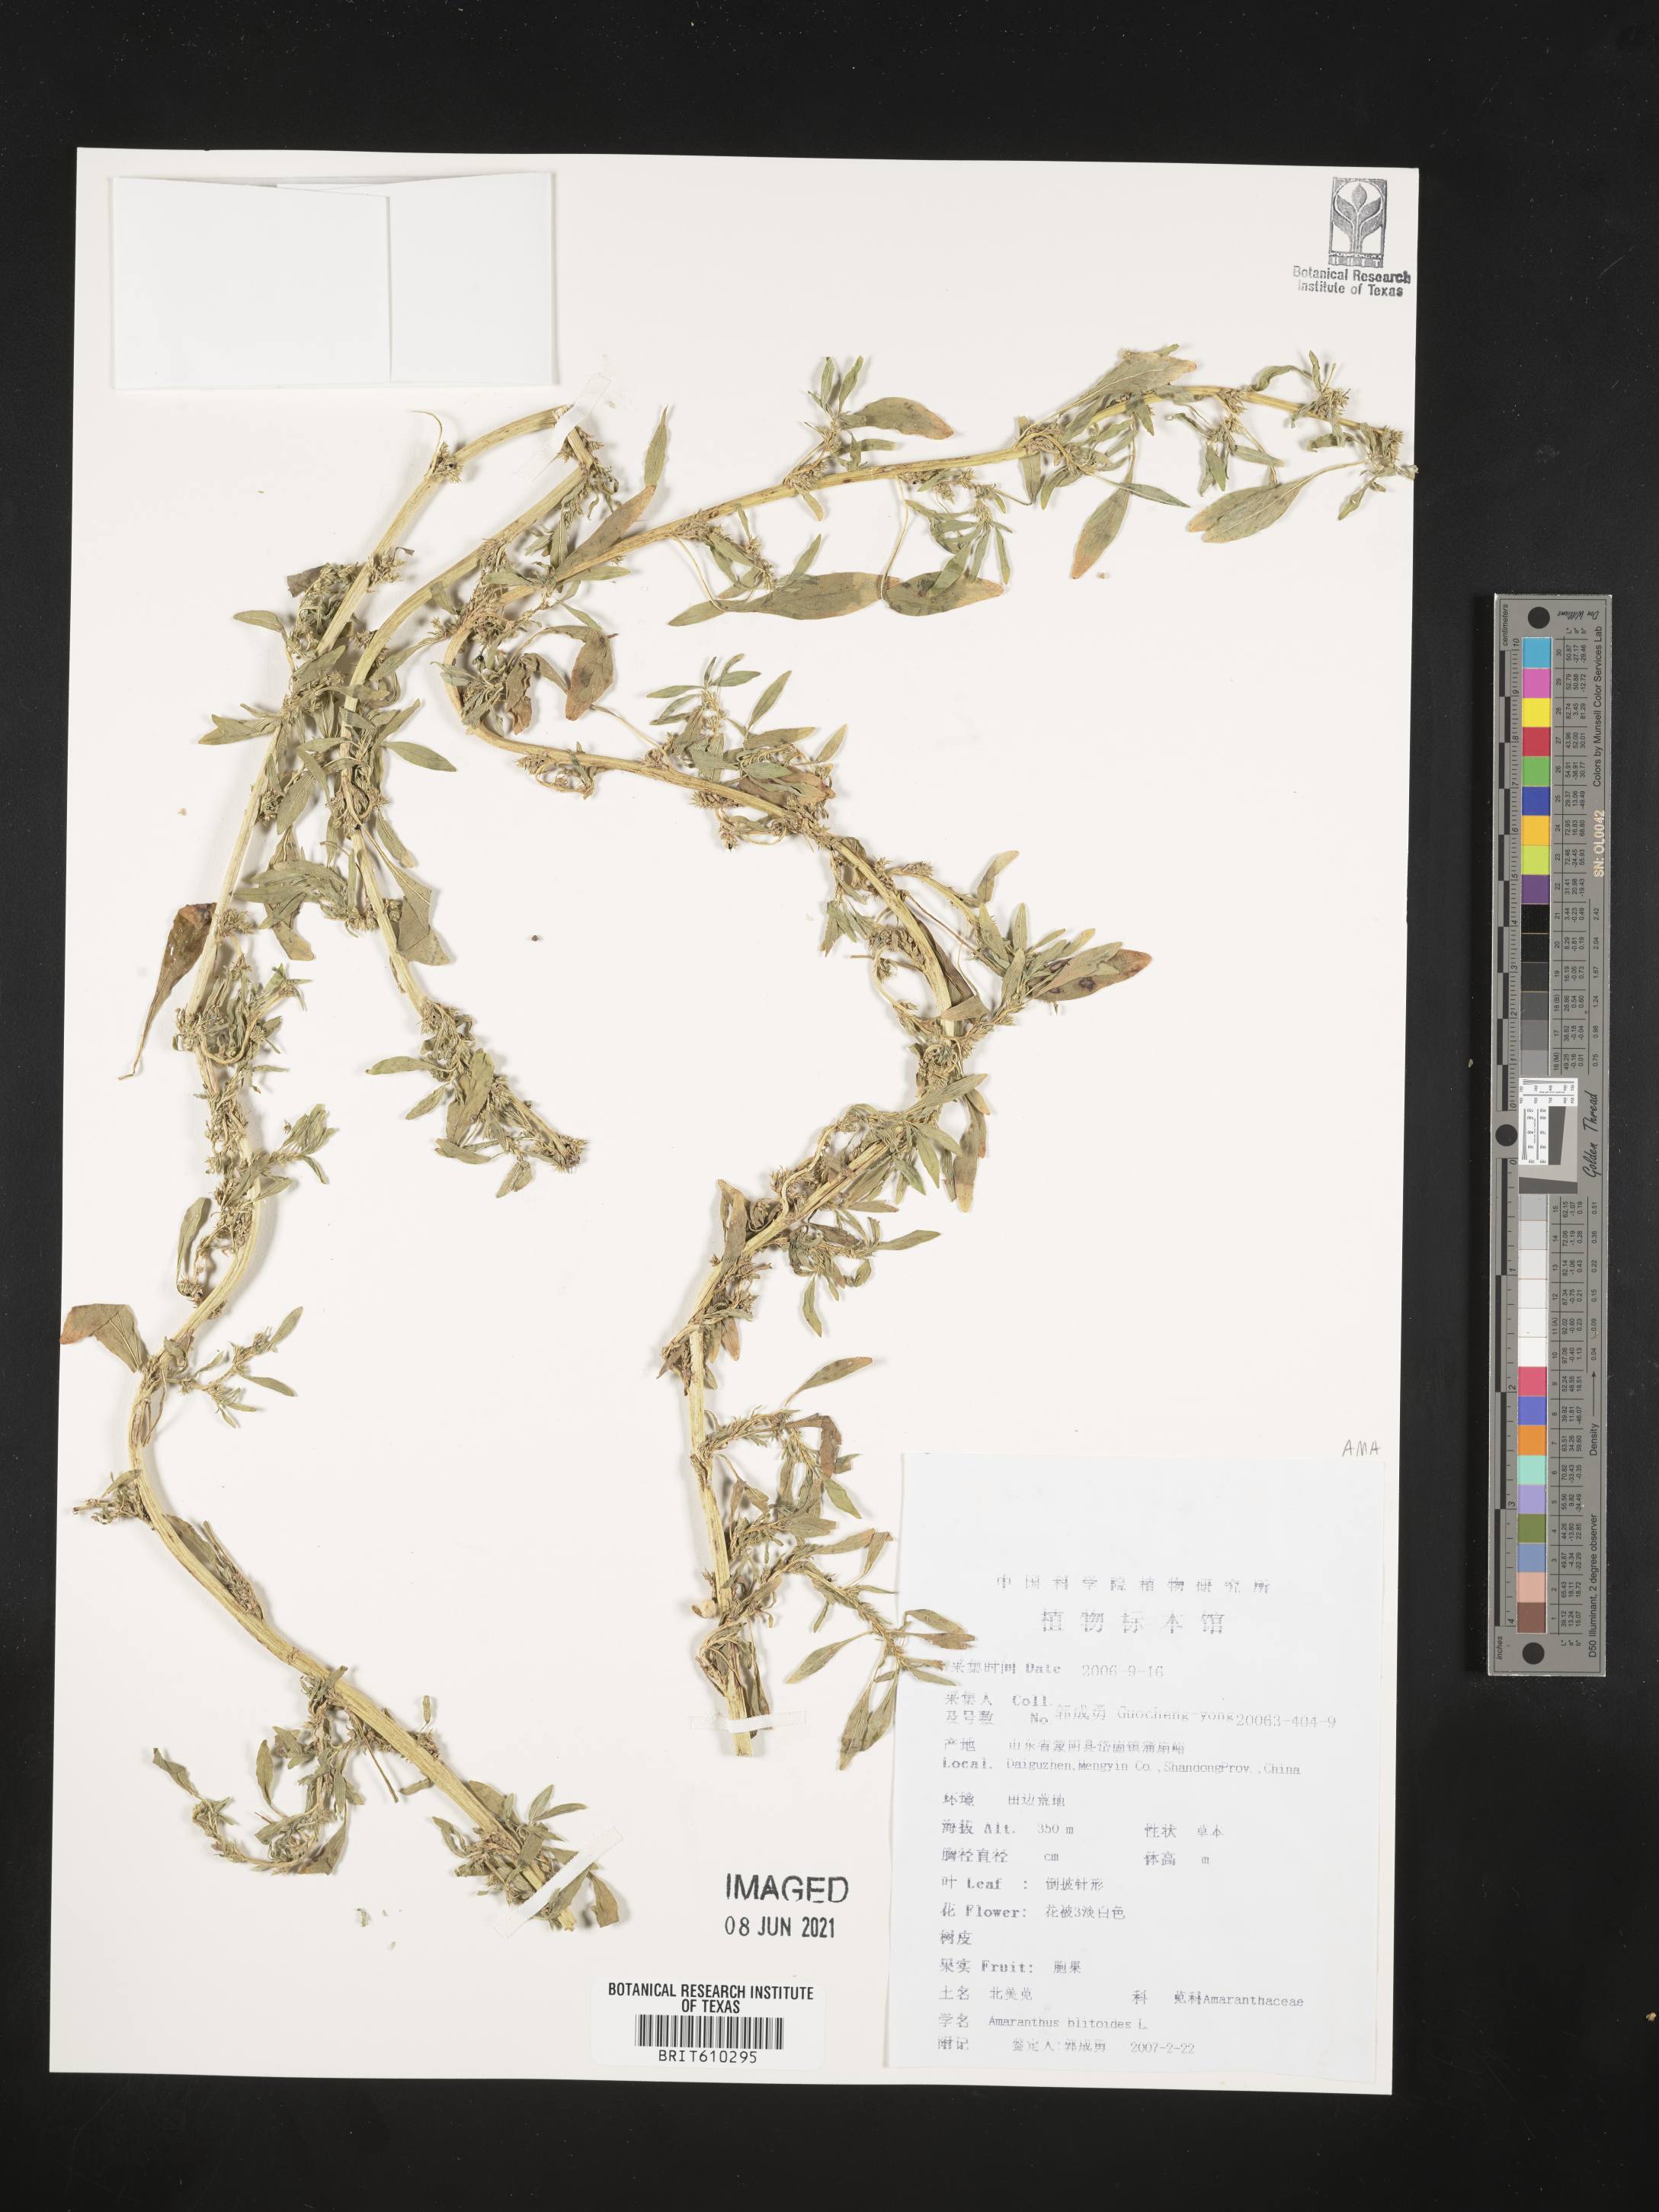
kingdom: Plantae
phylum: Tracheophyta
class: Magnoliopsida
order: Caryophyllales
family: Amaranthaceae
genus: Amaranthus
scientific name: Amaranthus blitoides
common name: Prostrate pigweed
